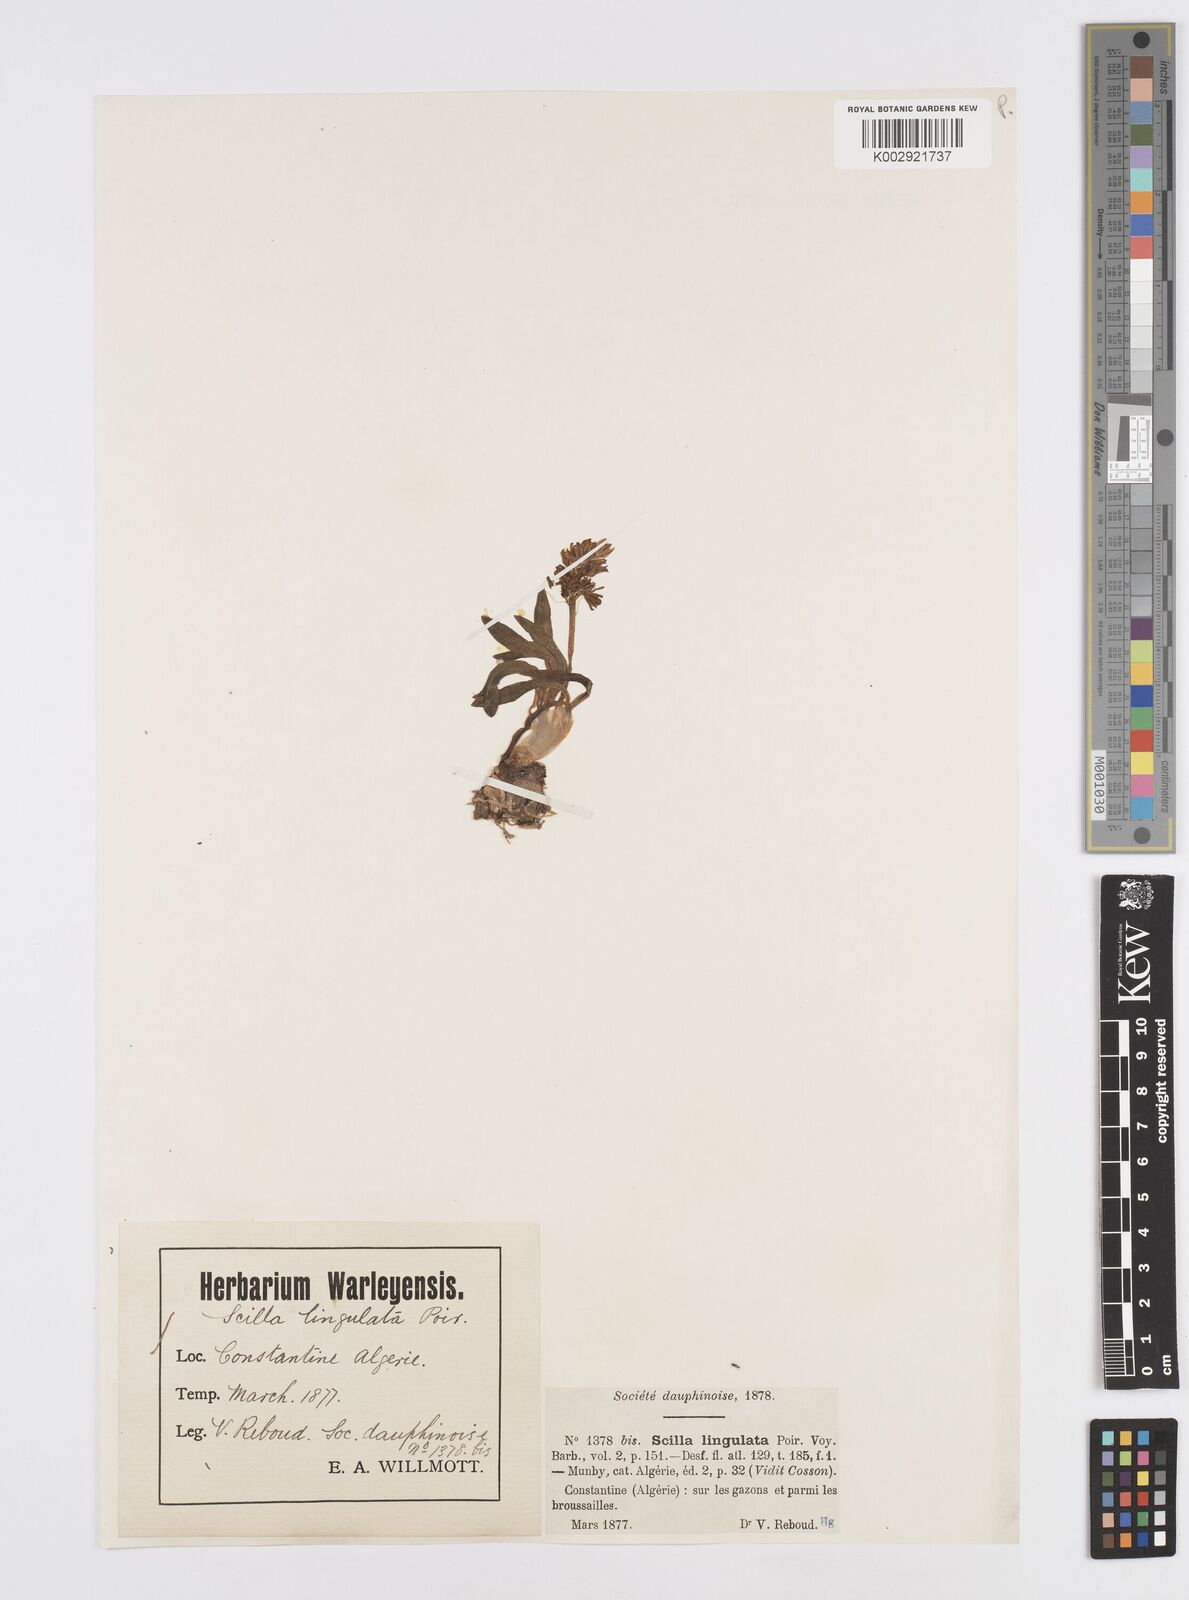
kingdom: Plantae
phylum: Tracheophyta
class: Liliopsida
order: Asparagales
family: Asparagaceae
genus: Hyacinthoides
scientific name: Hyacinthoides lingulata
